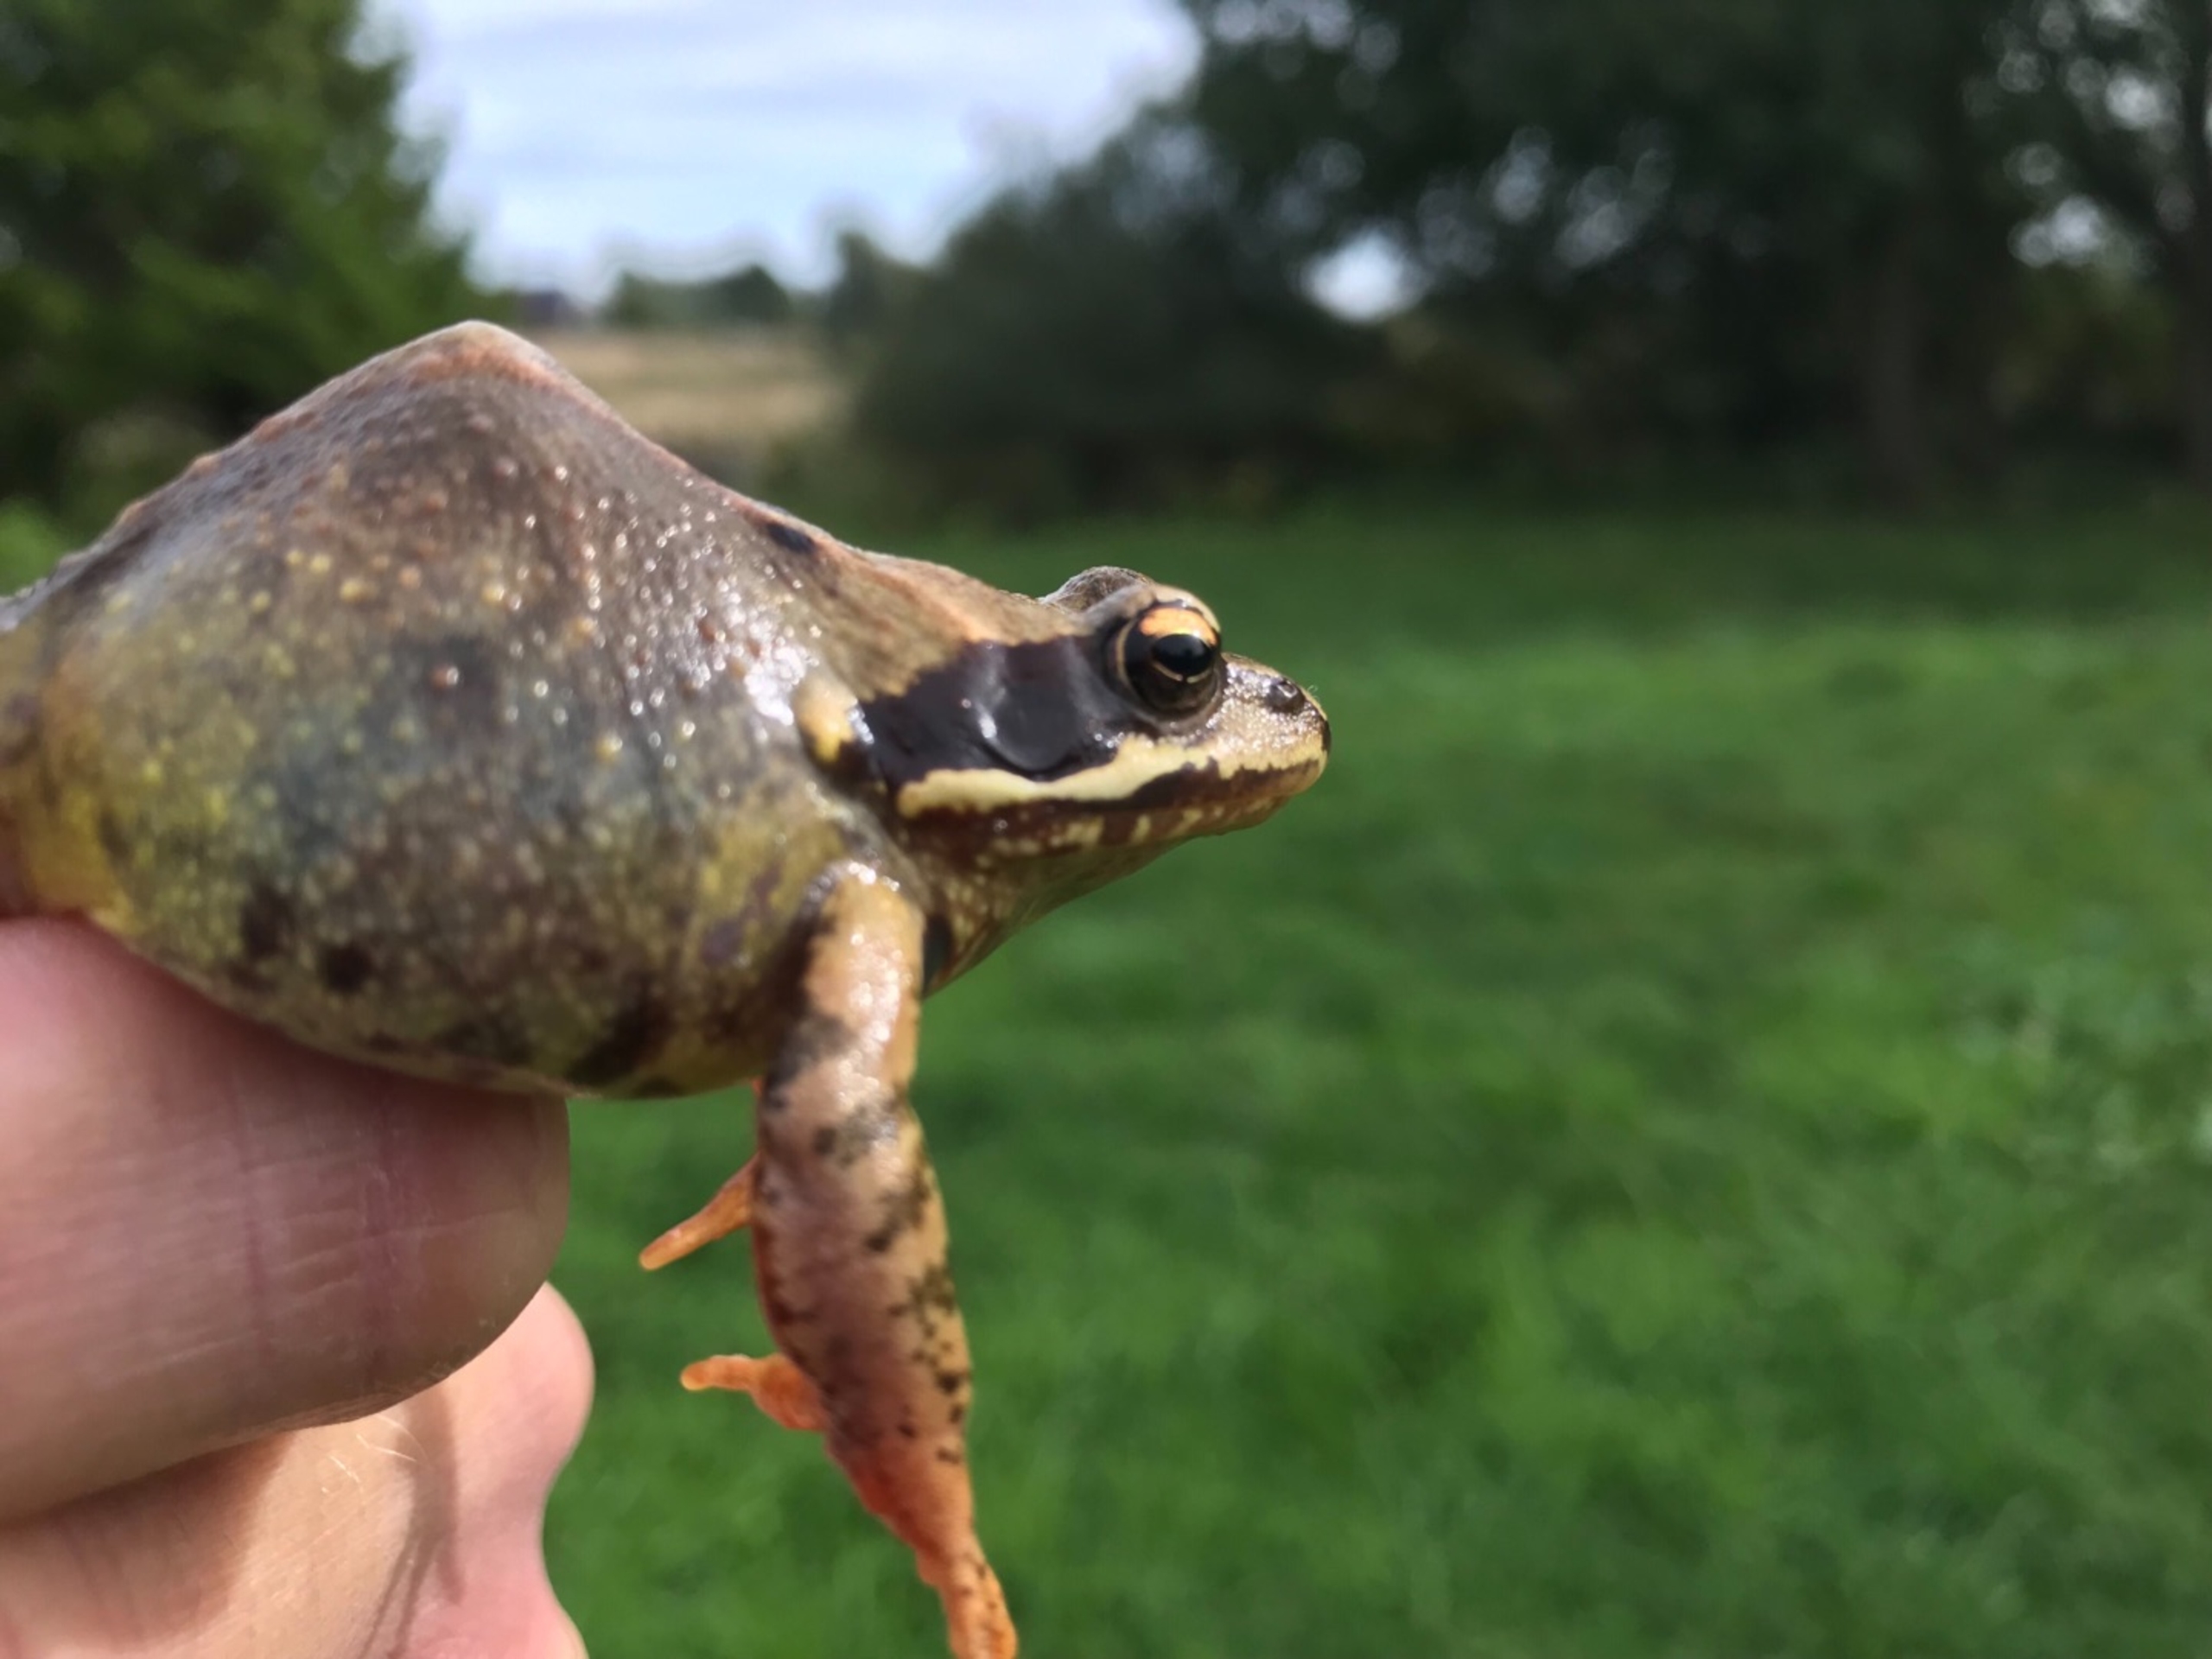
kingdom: Animalia
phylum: Chordata
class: Amphibia
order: Anura
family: Ranidae
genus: Rana
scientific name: Rana temporaria
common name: Butsnudet frø
